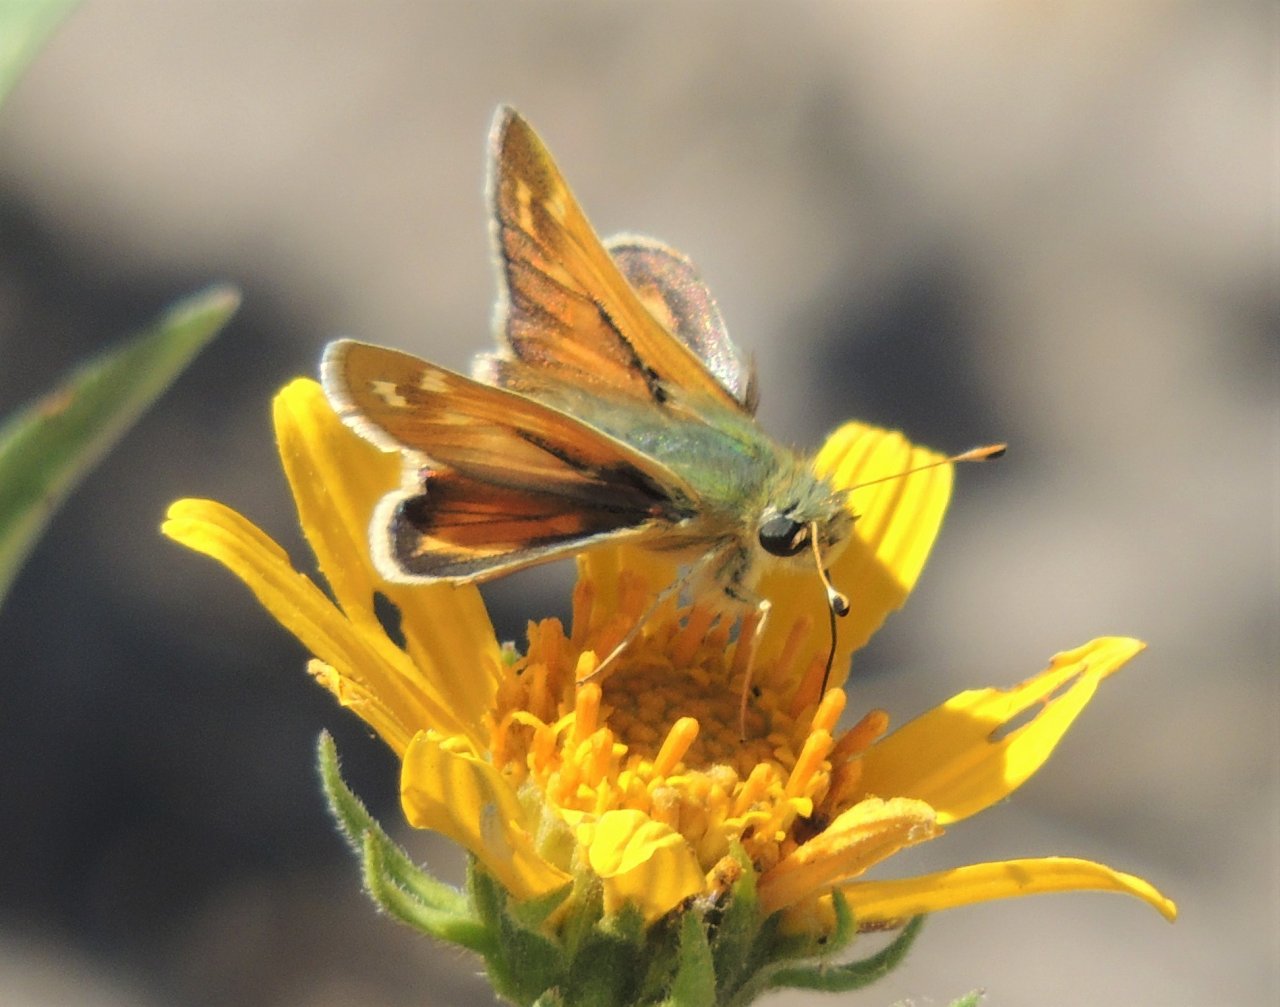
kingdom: Animalia
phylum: Arthropoda
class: Insecta
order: Lepidoptera
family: Hesperiidae
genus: Hesperia
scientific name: Hesperia comma
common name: Western Branded Skipper
